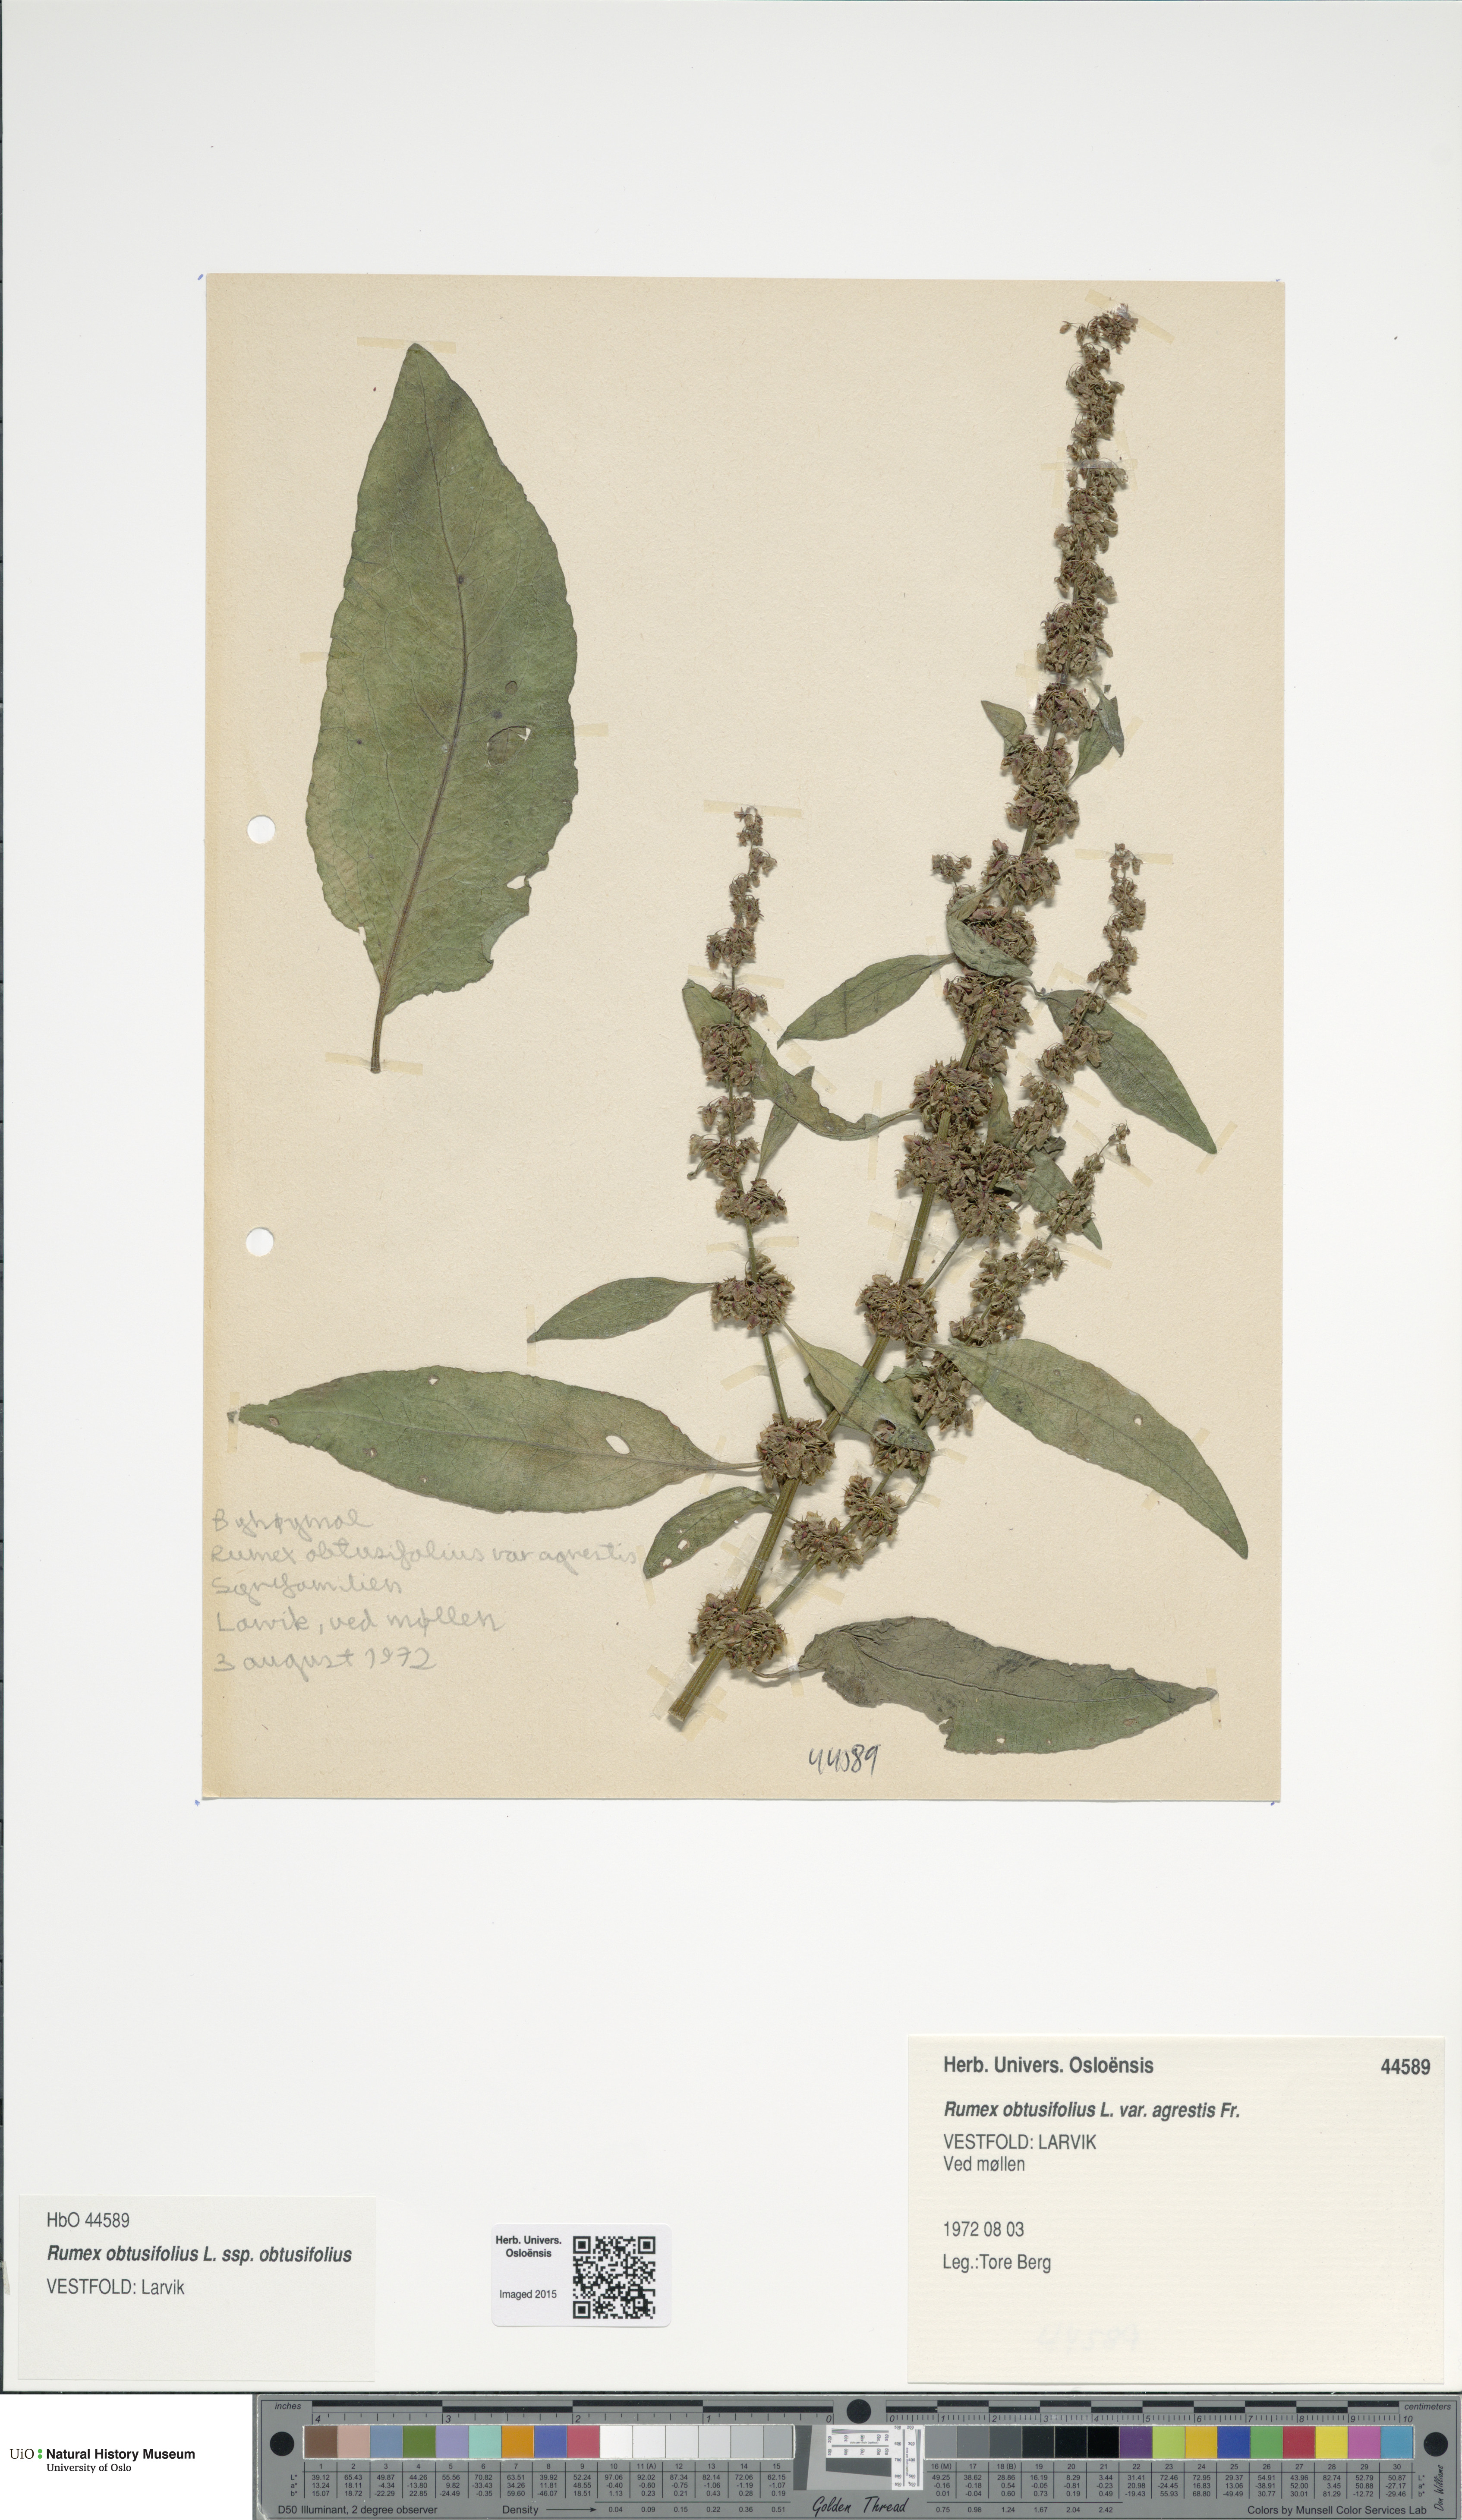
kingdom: Plantae
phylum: Tracheophyta
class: Magnoliopsida
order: Caryophyllales
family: Polygonaceae
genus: Rumex
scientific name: Rumex obtusifolius
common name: Bitter dock
